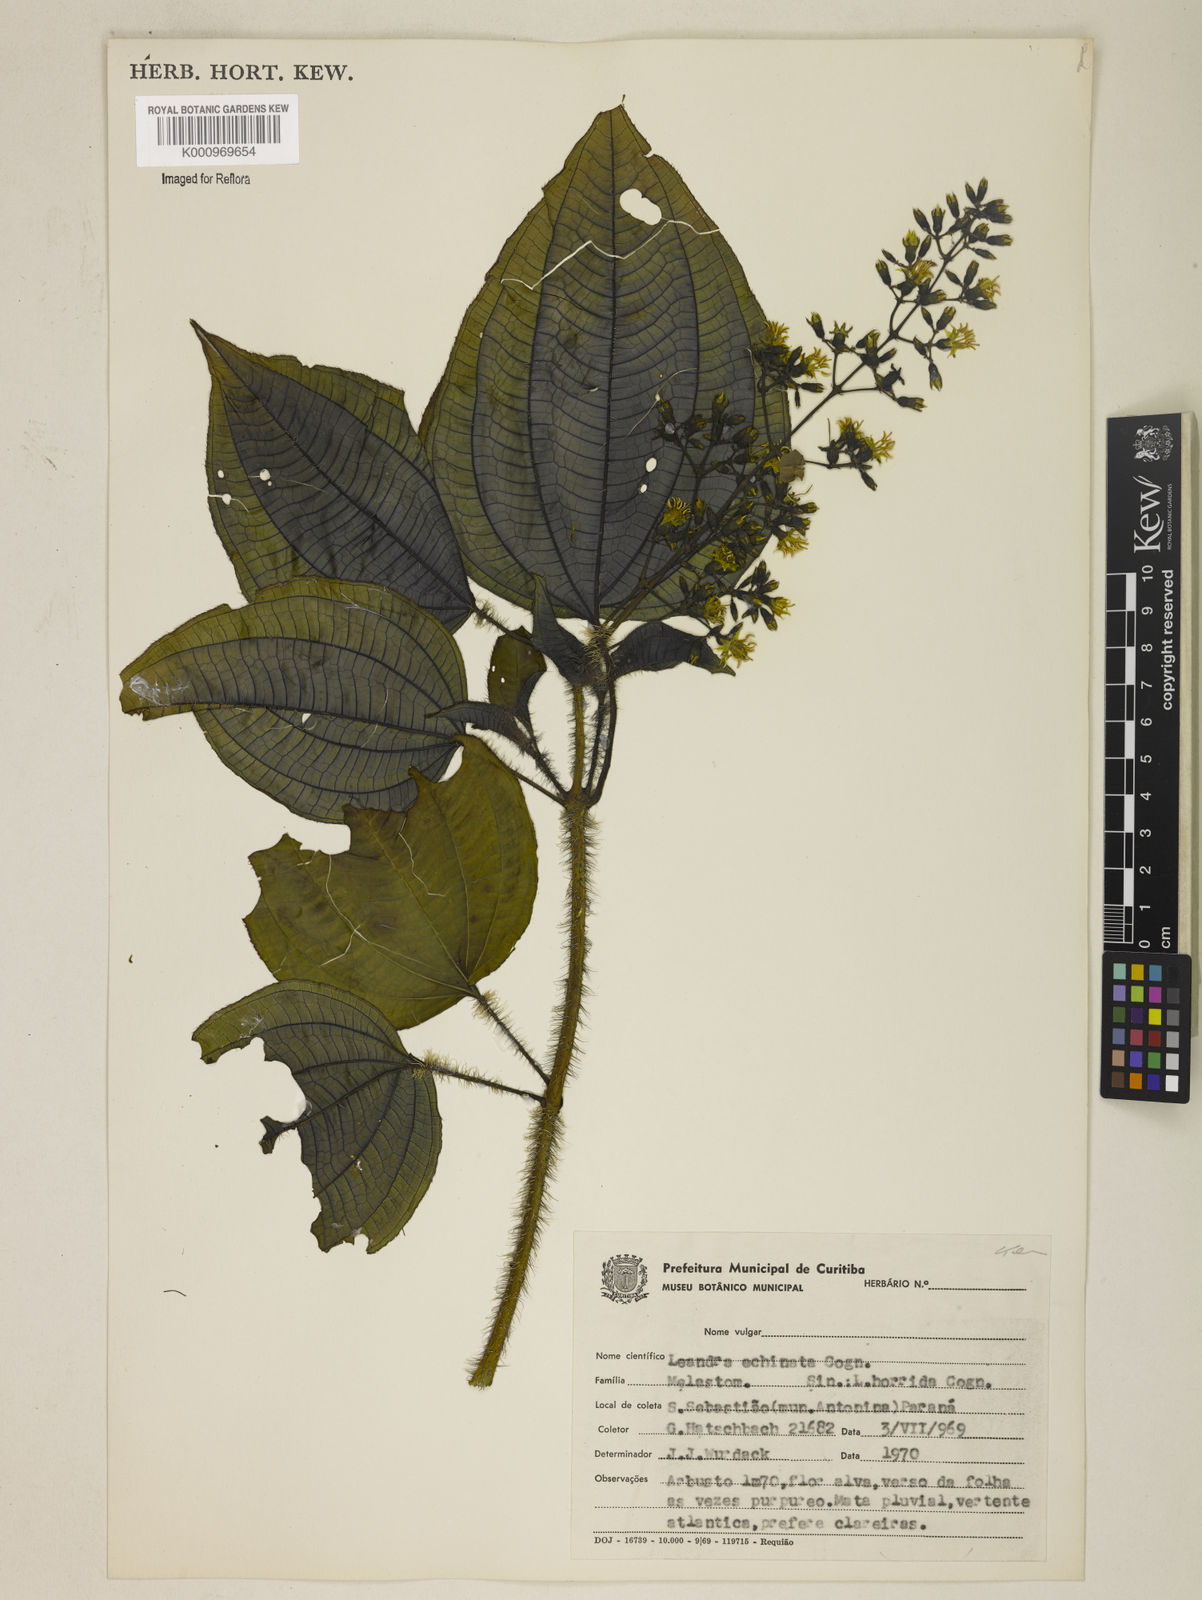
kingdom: Plantae
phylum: Tracheophyta
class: Magnoliopsida
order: Myrtales
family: Melastomataceae
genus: Miconia
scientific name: Miconia leaechinata
